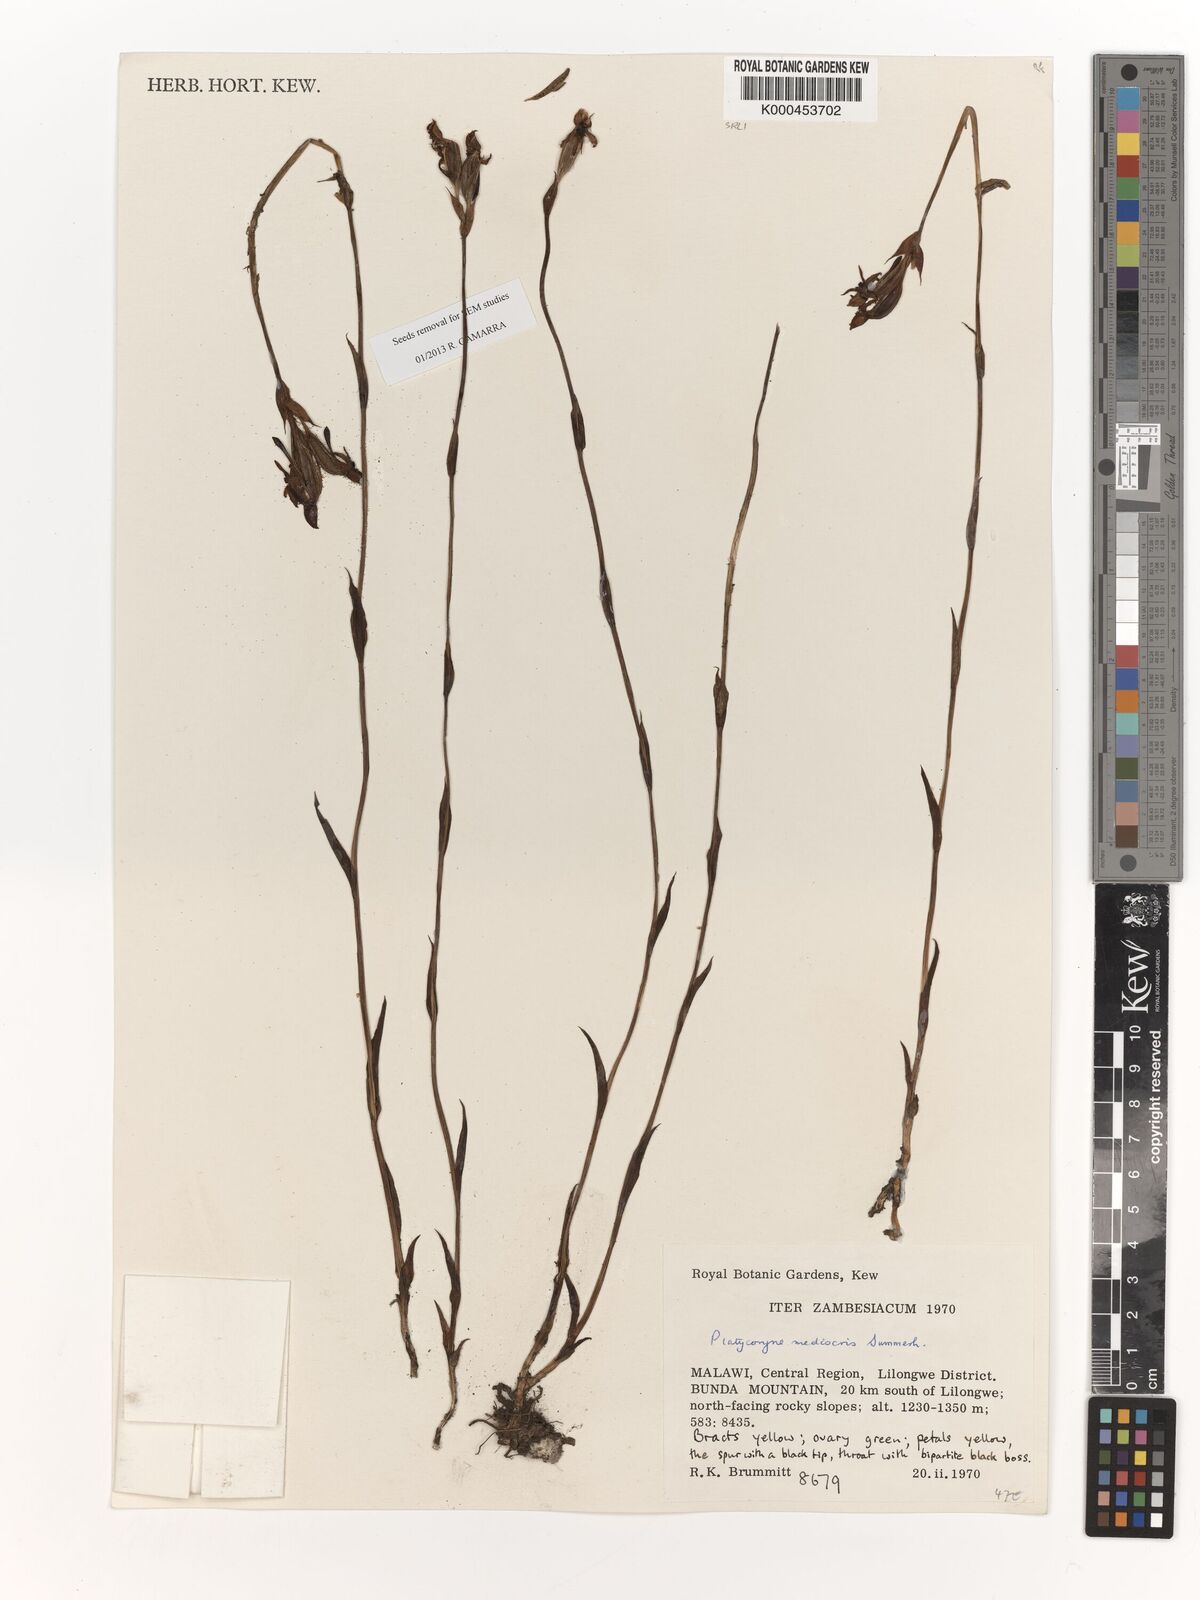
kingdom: Plantae
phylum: Tracheophyta
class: Liliopsida
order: Asparagales
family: Orchidaceae
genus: Platycoryne
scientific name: Platycoryne mediocris
